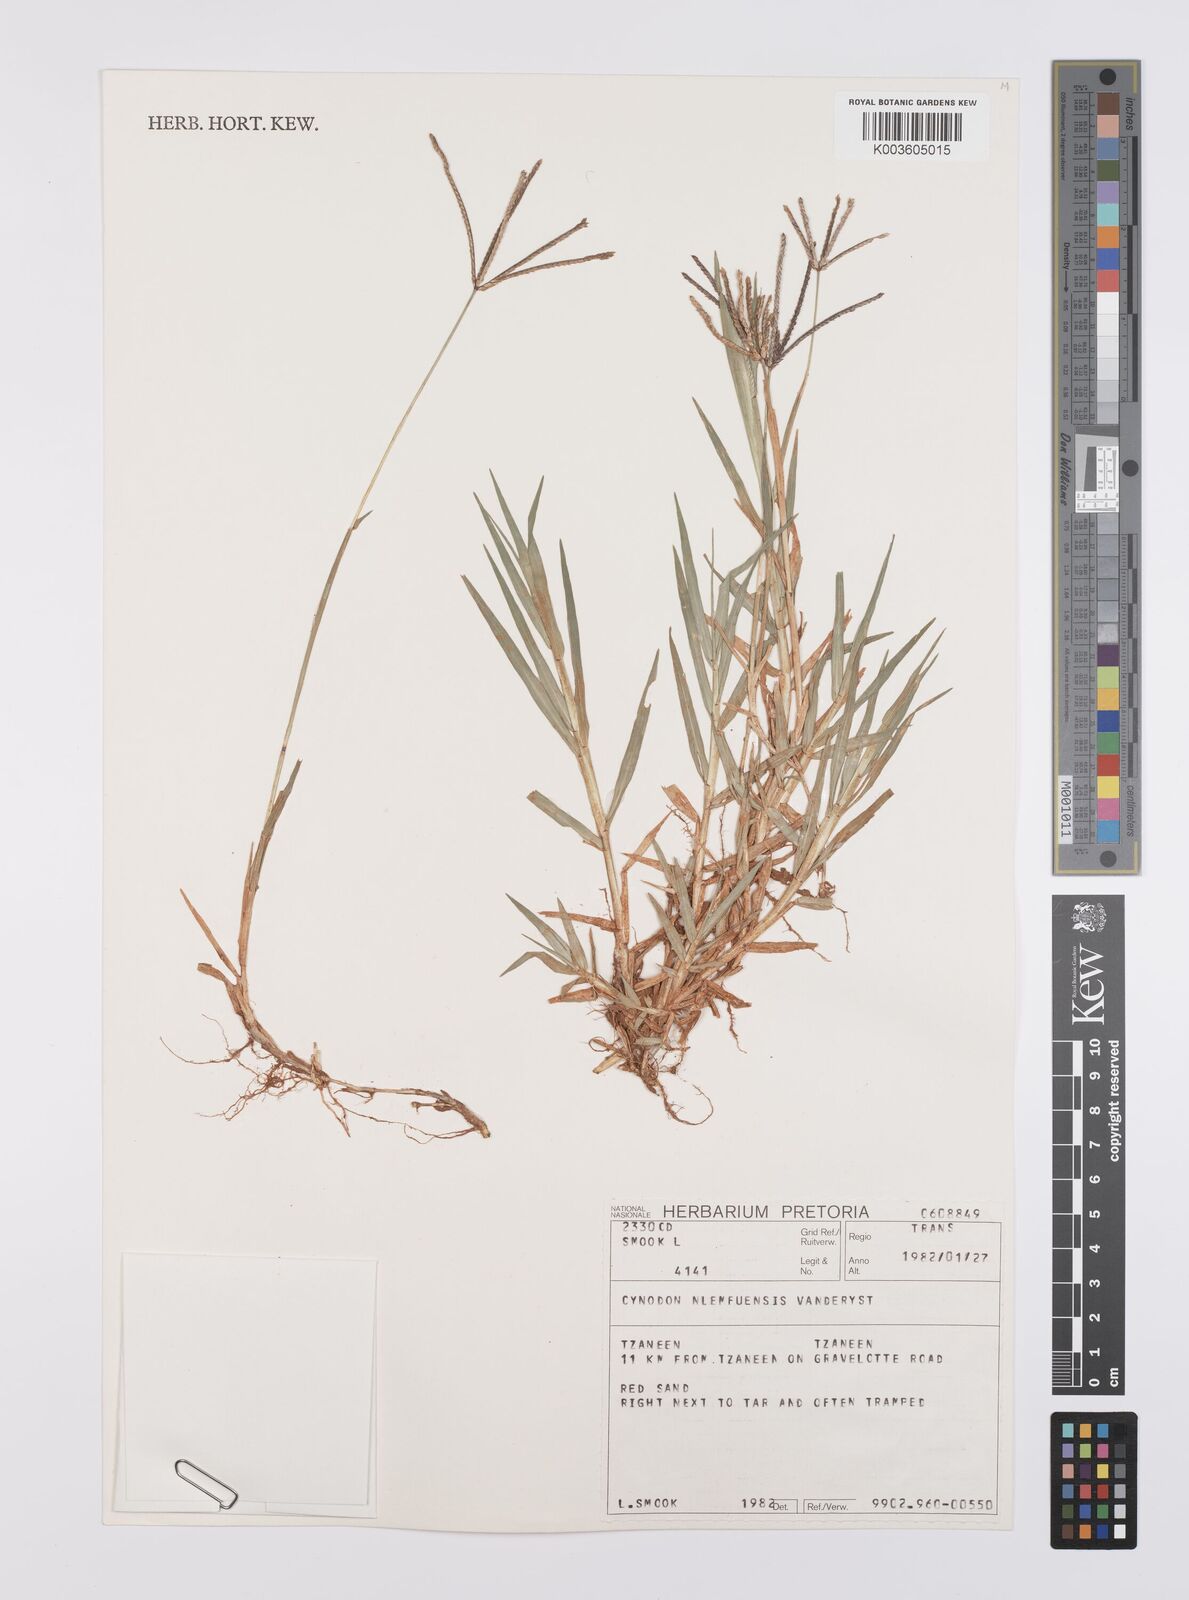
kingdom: Plantae
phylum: Tracheophyta
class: Liliopsida
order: Poales
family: Poaceae
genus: Cynodon
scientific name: Cynodon nlemfuensis
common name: African bermudagrass
